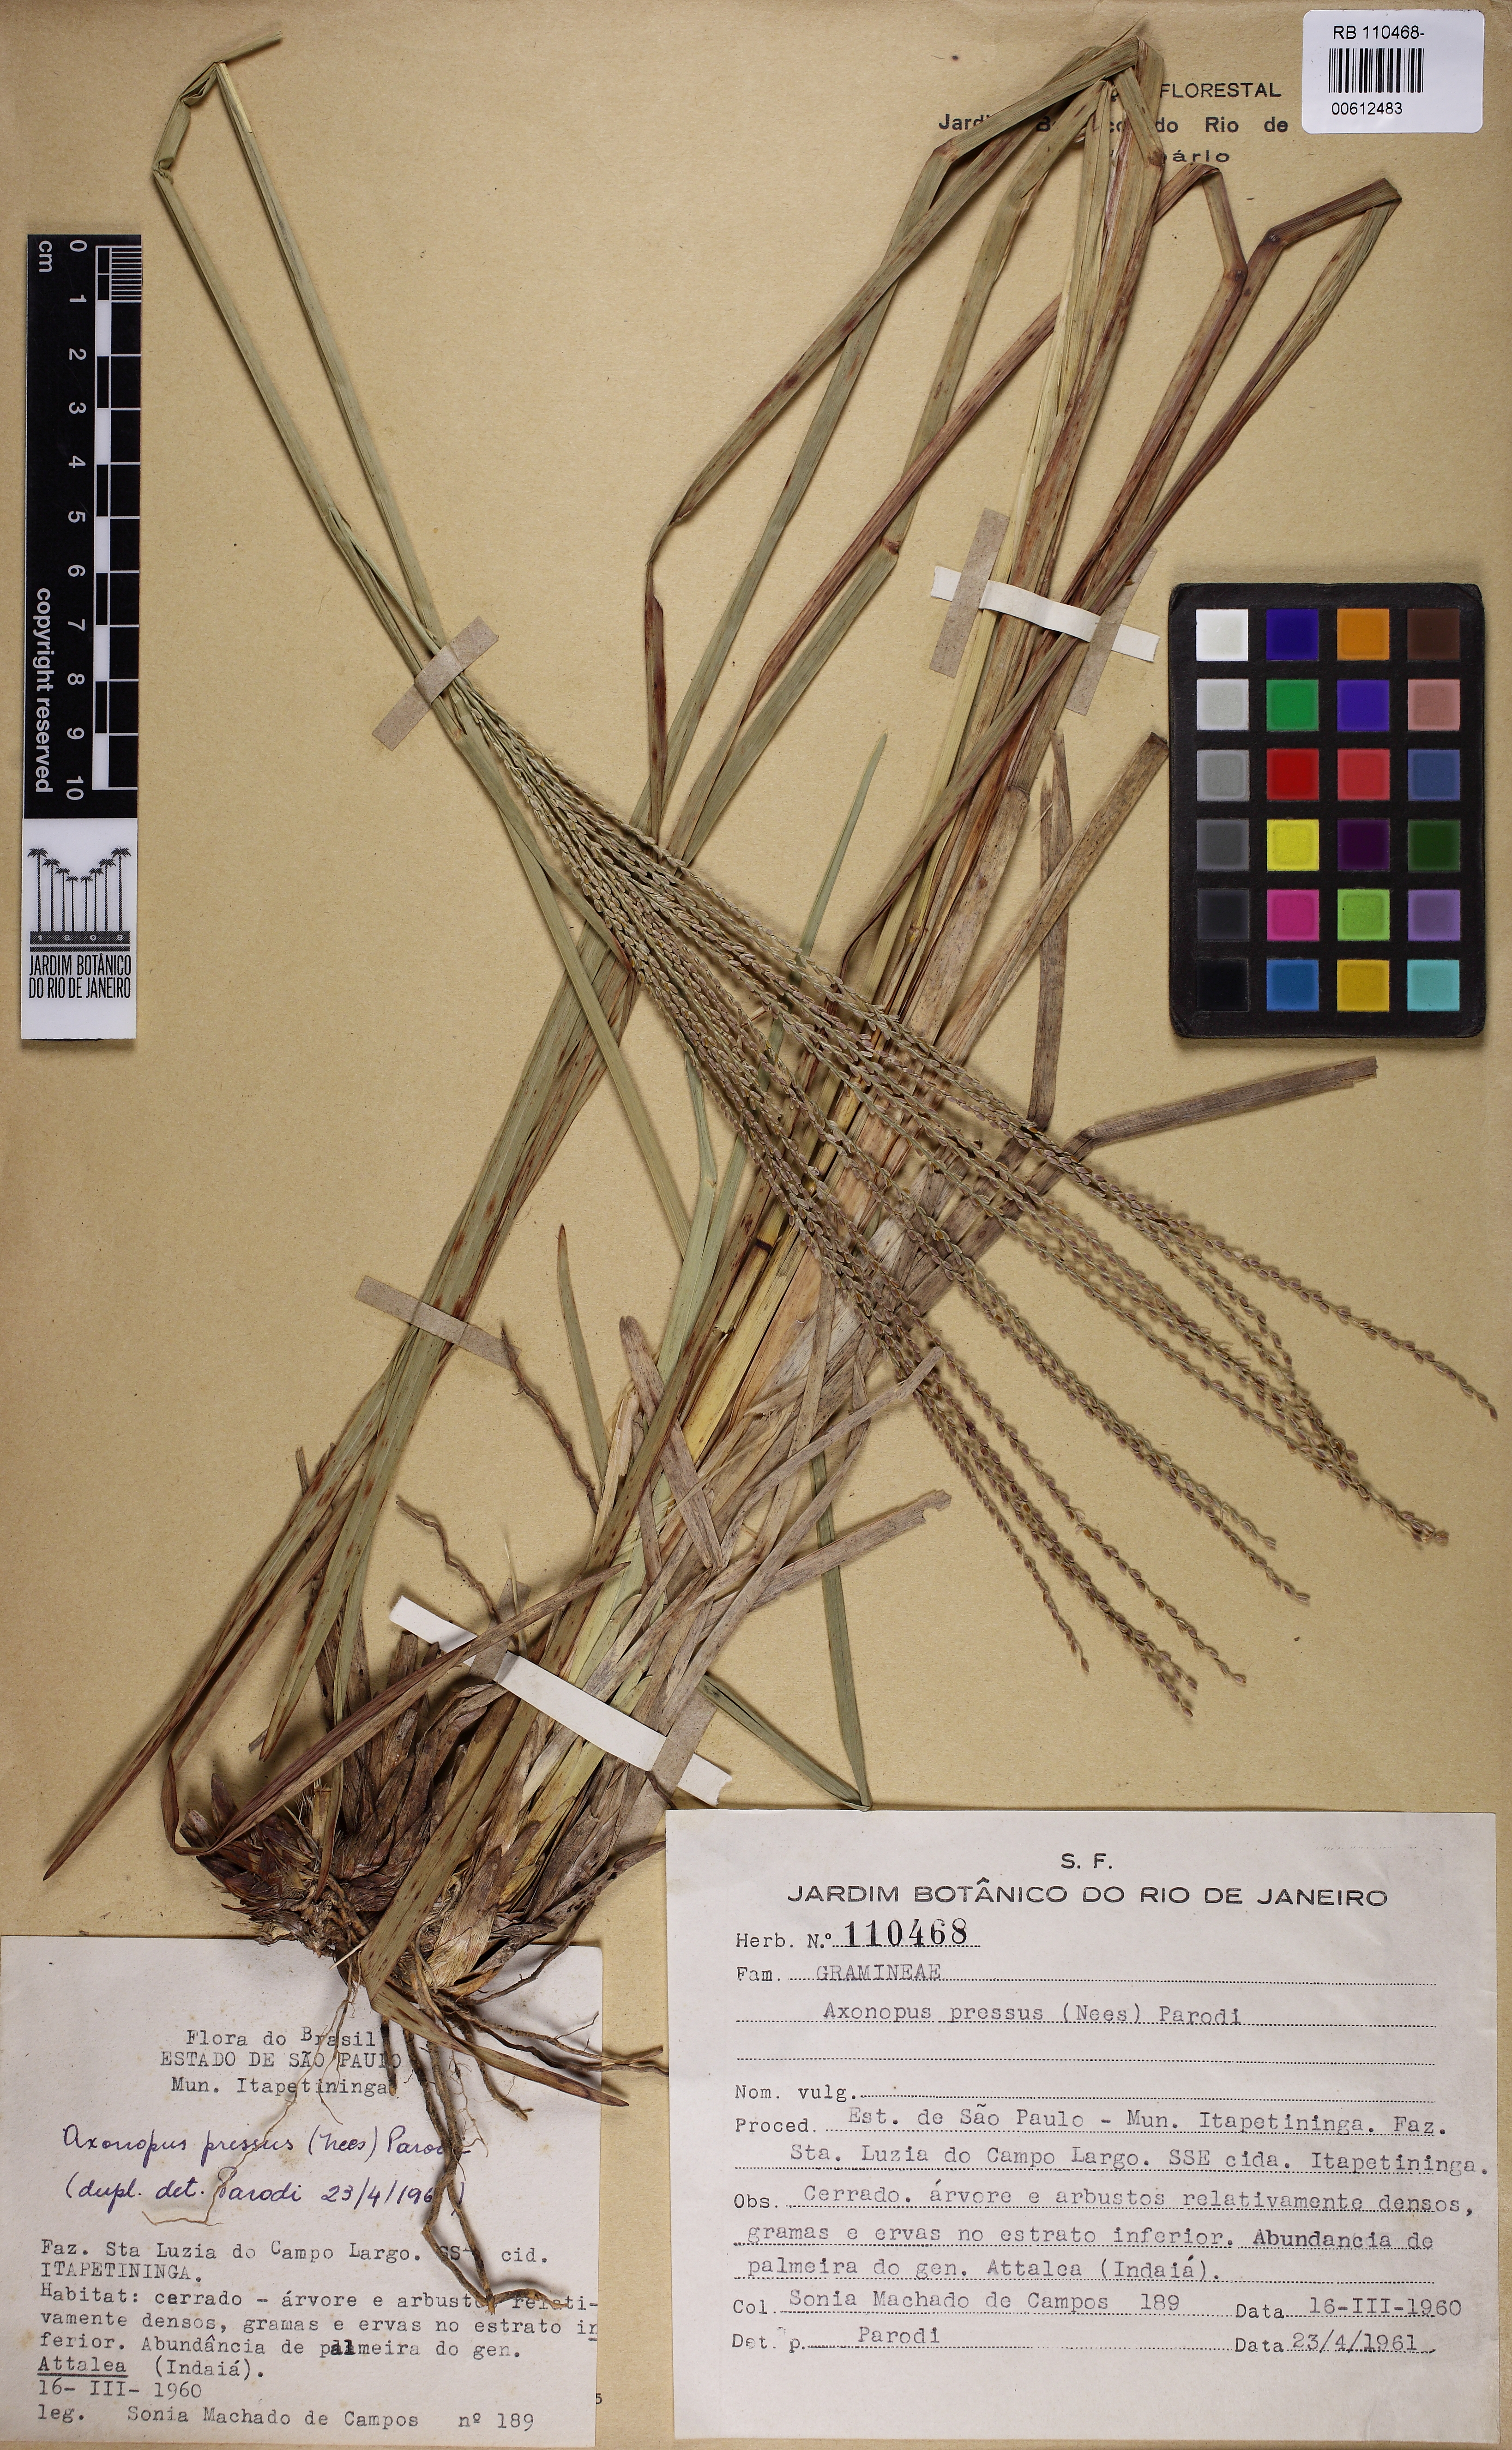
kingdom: Plantae
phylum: Tracheophyta
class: Liliopsida
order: Poales
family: Poaceae
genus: Axonopus
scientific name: Axonopus pressus
